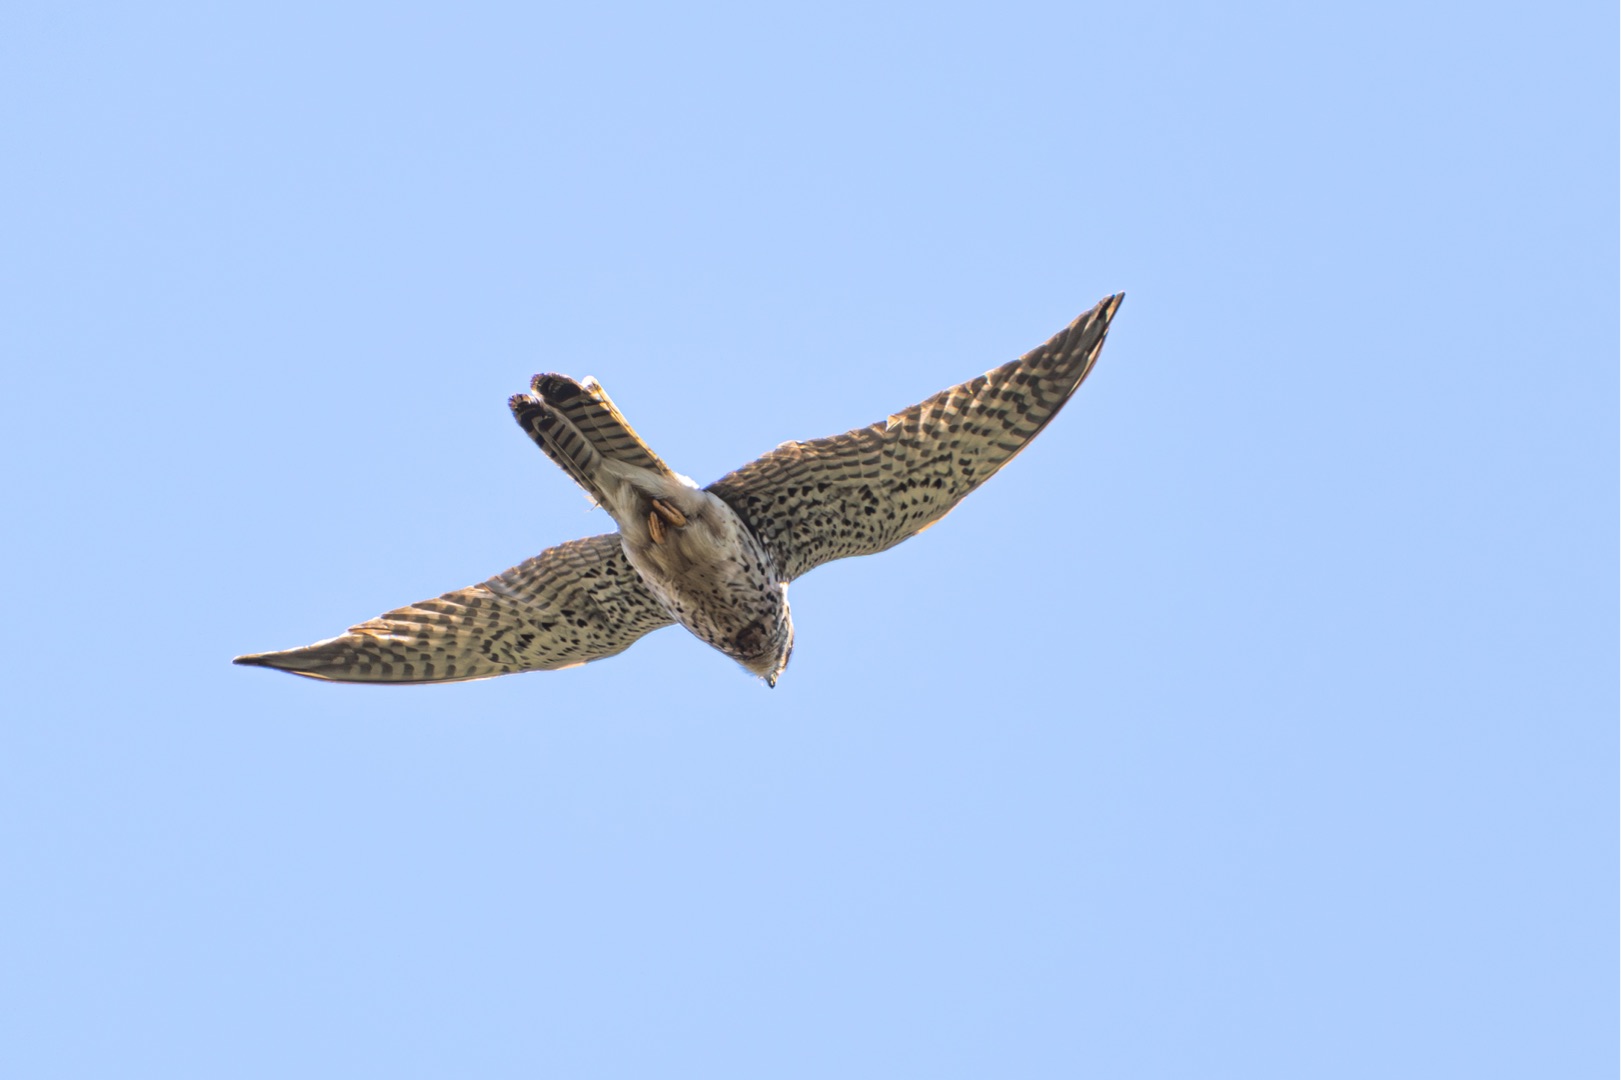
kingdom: Animalia
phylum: Chordata
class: Aves
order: Falconiformes
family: Falconidae
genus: Falco
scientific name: Falco tinnunculus
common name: Tårnfalk
